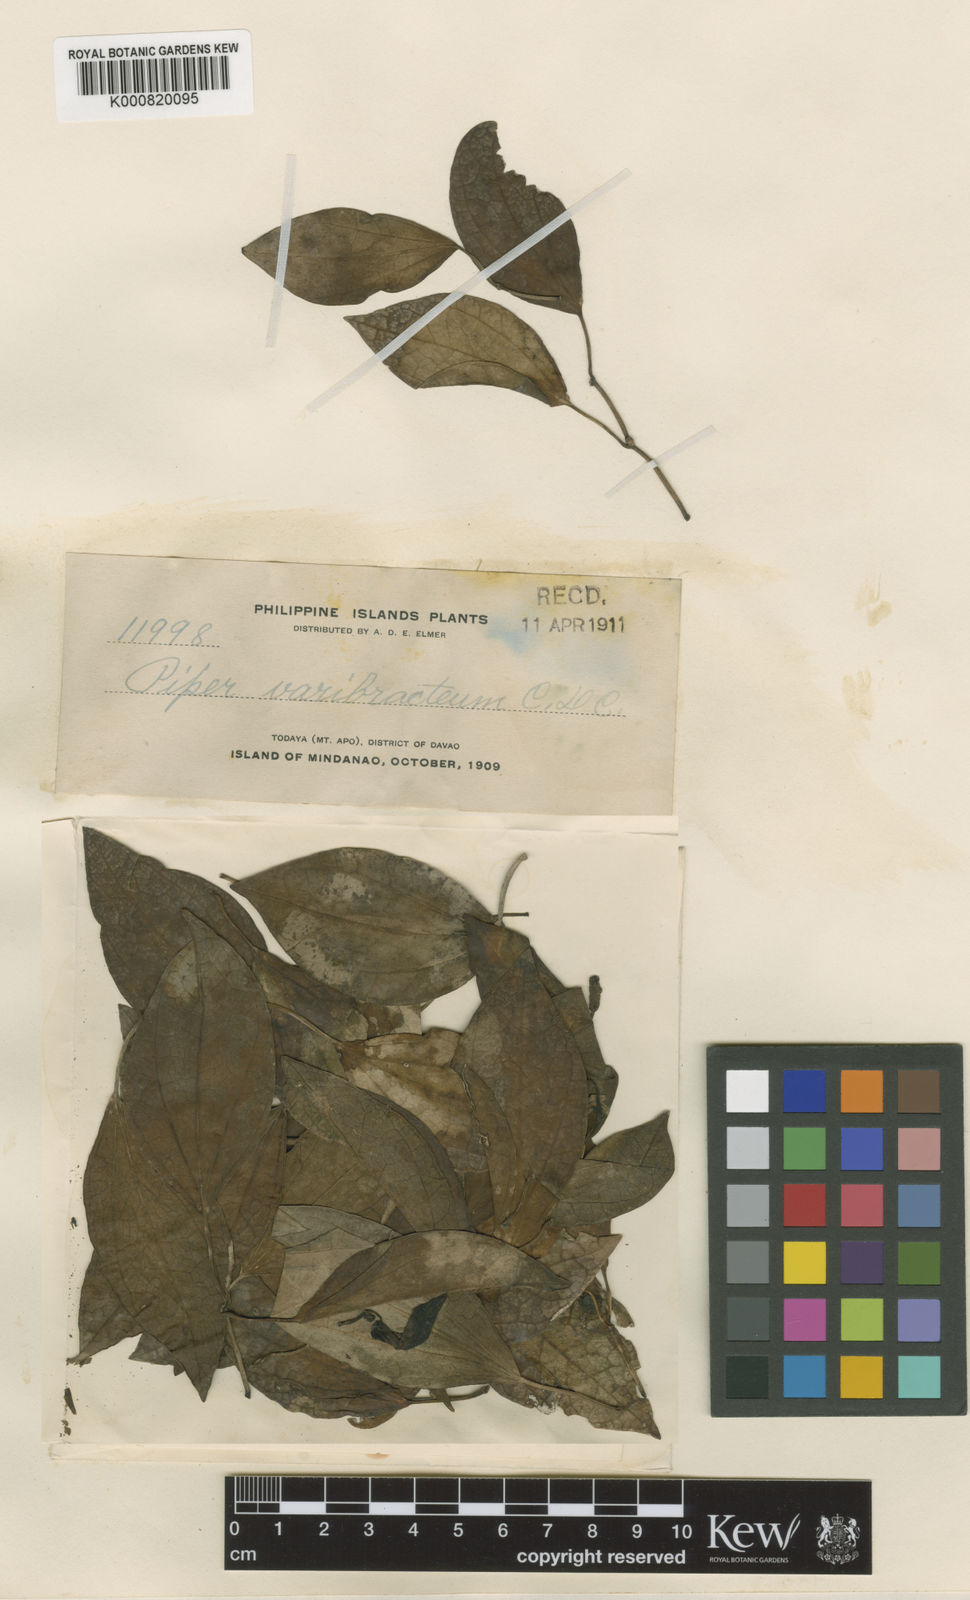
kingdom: Plantae
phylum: Tracheophyta
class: Magnoliopsida
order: Piperales
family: Piperaceae
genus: Piper
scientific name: Piper varibracteum
